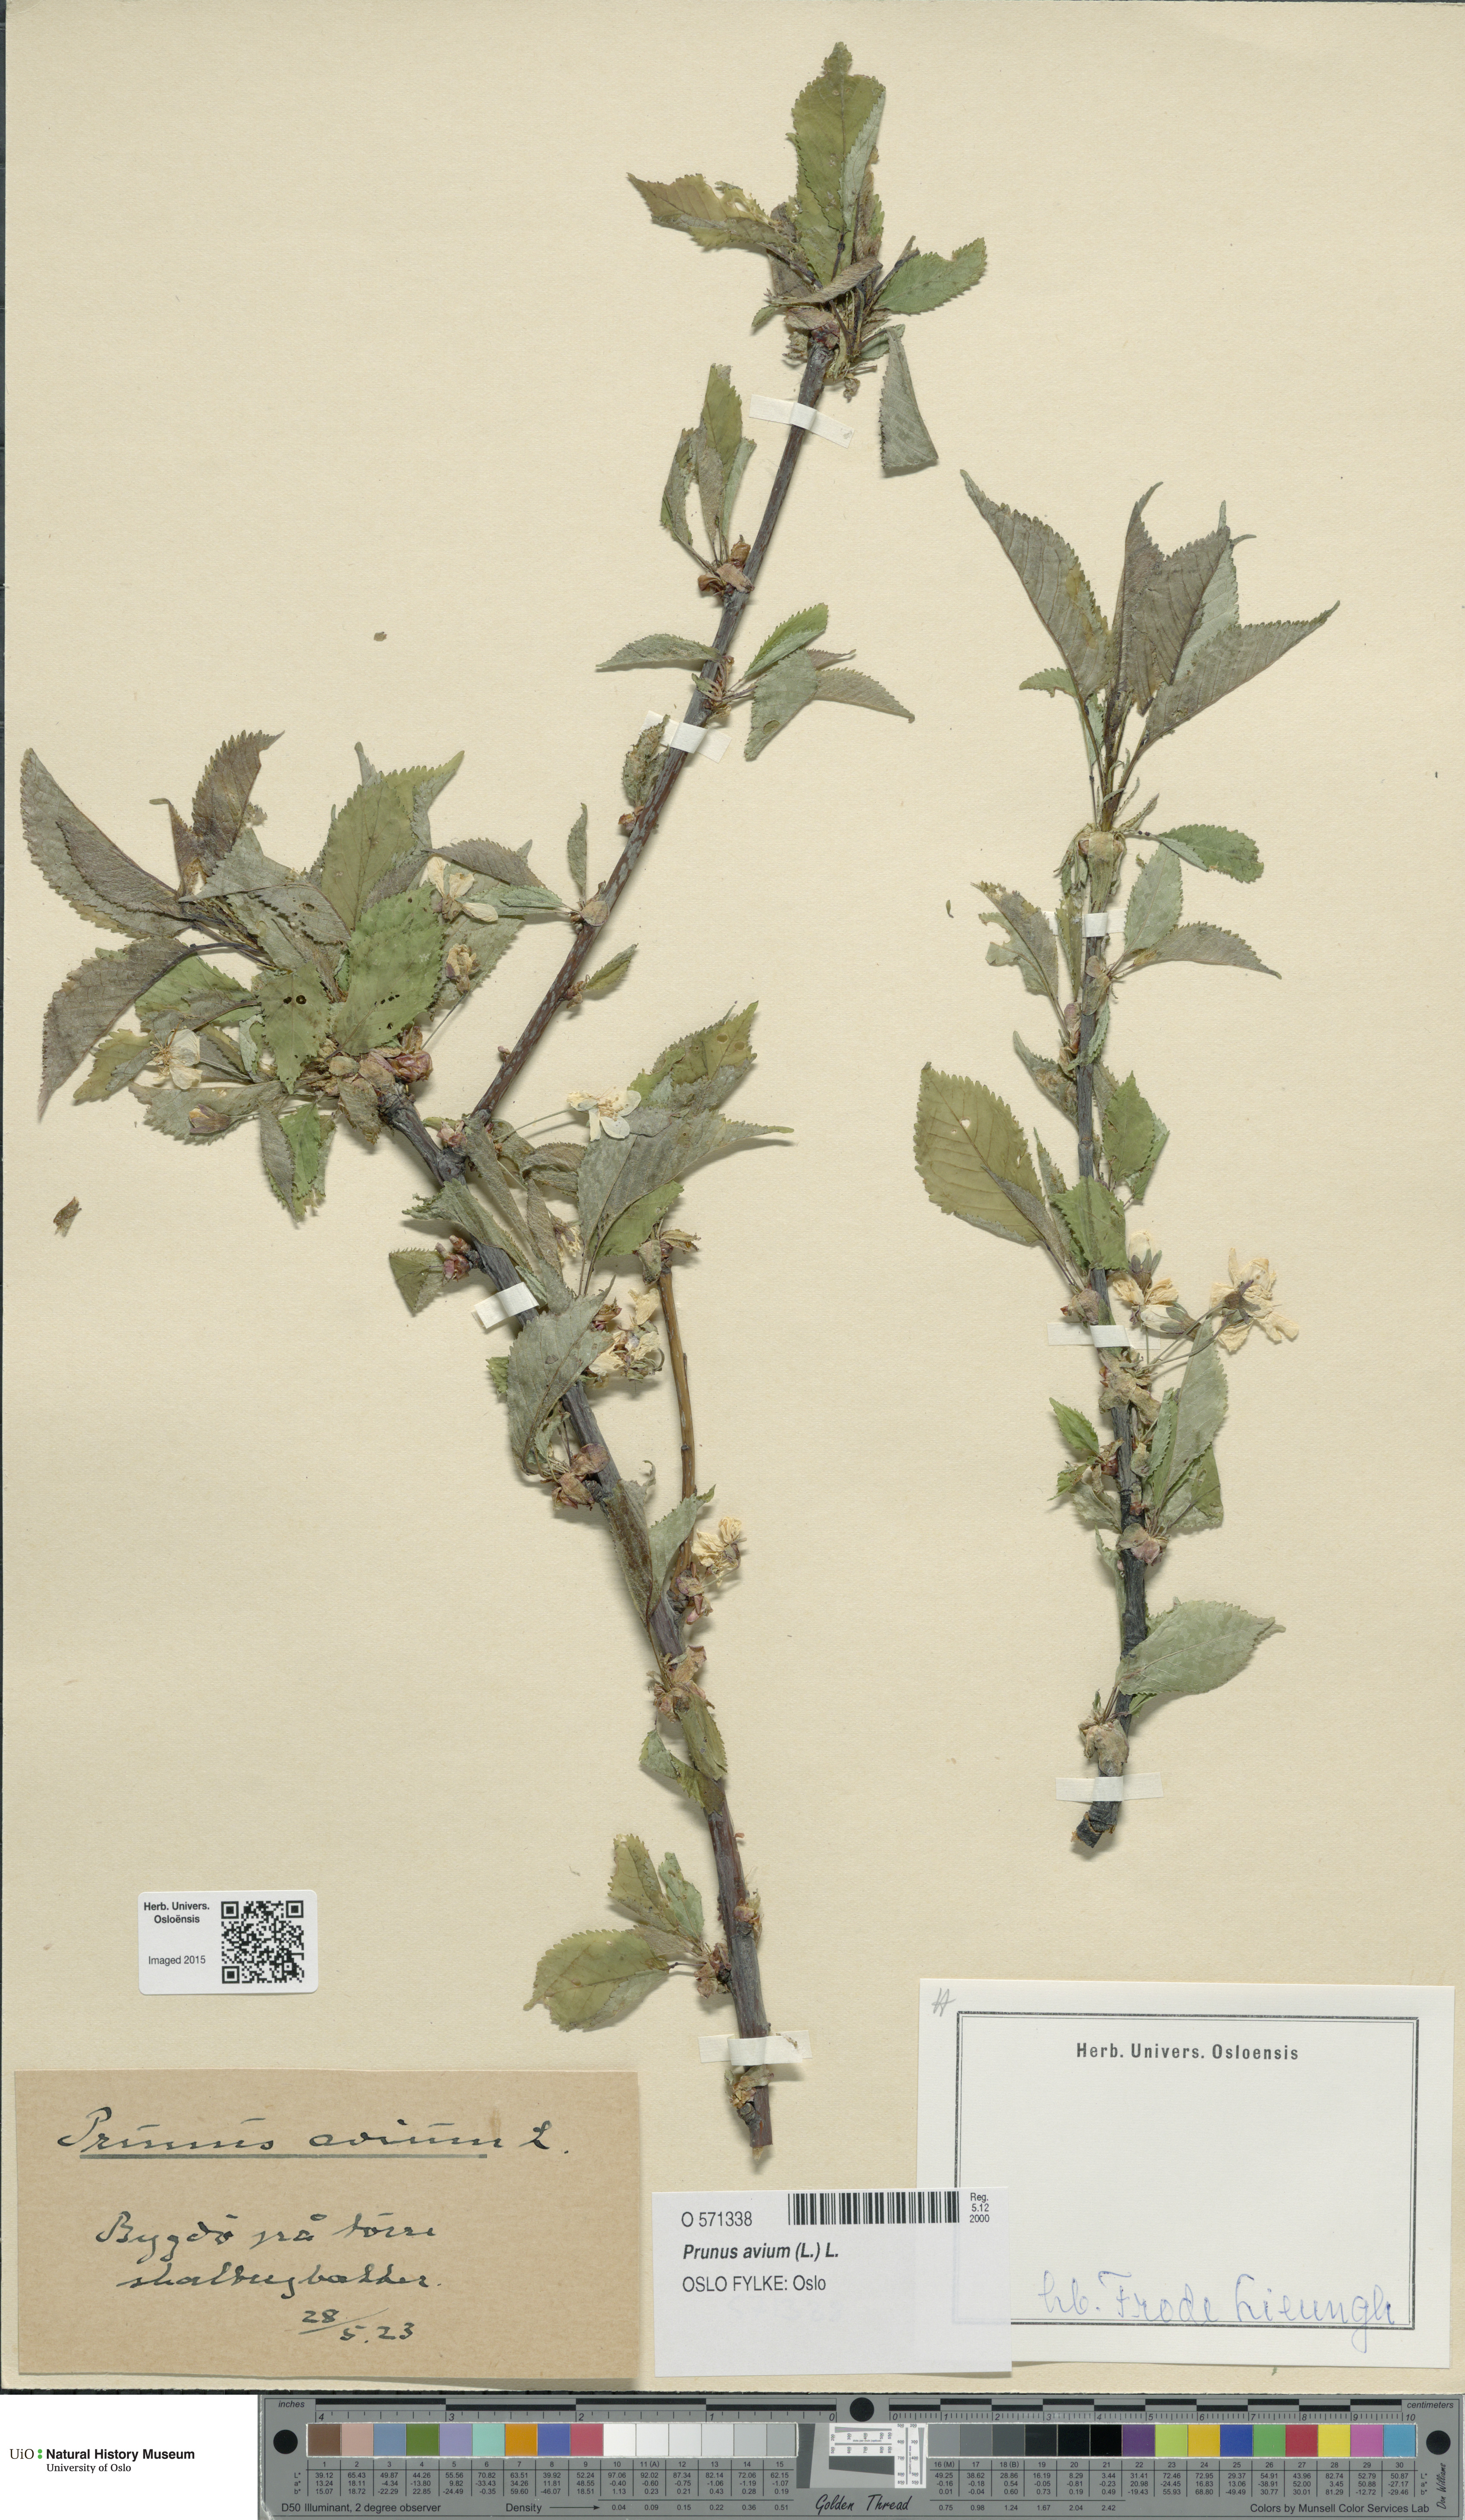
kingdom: Plantae
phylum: Tracheophyta
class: Magnoliopsida
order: Rosales
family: Rosaceae
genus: Prunus
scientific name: Prunus avium
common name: Sweet cherry
